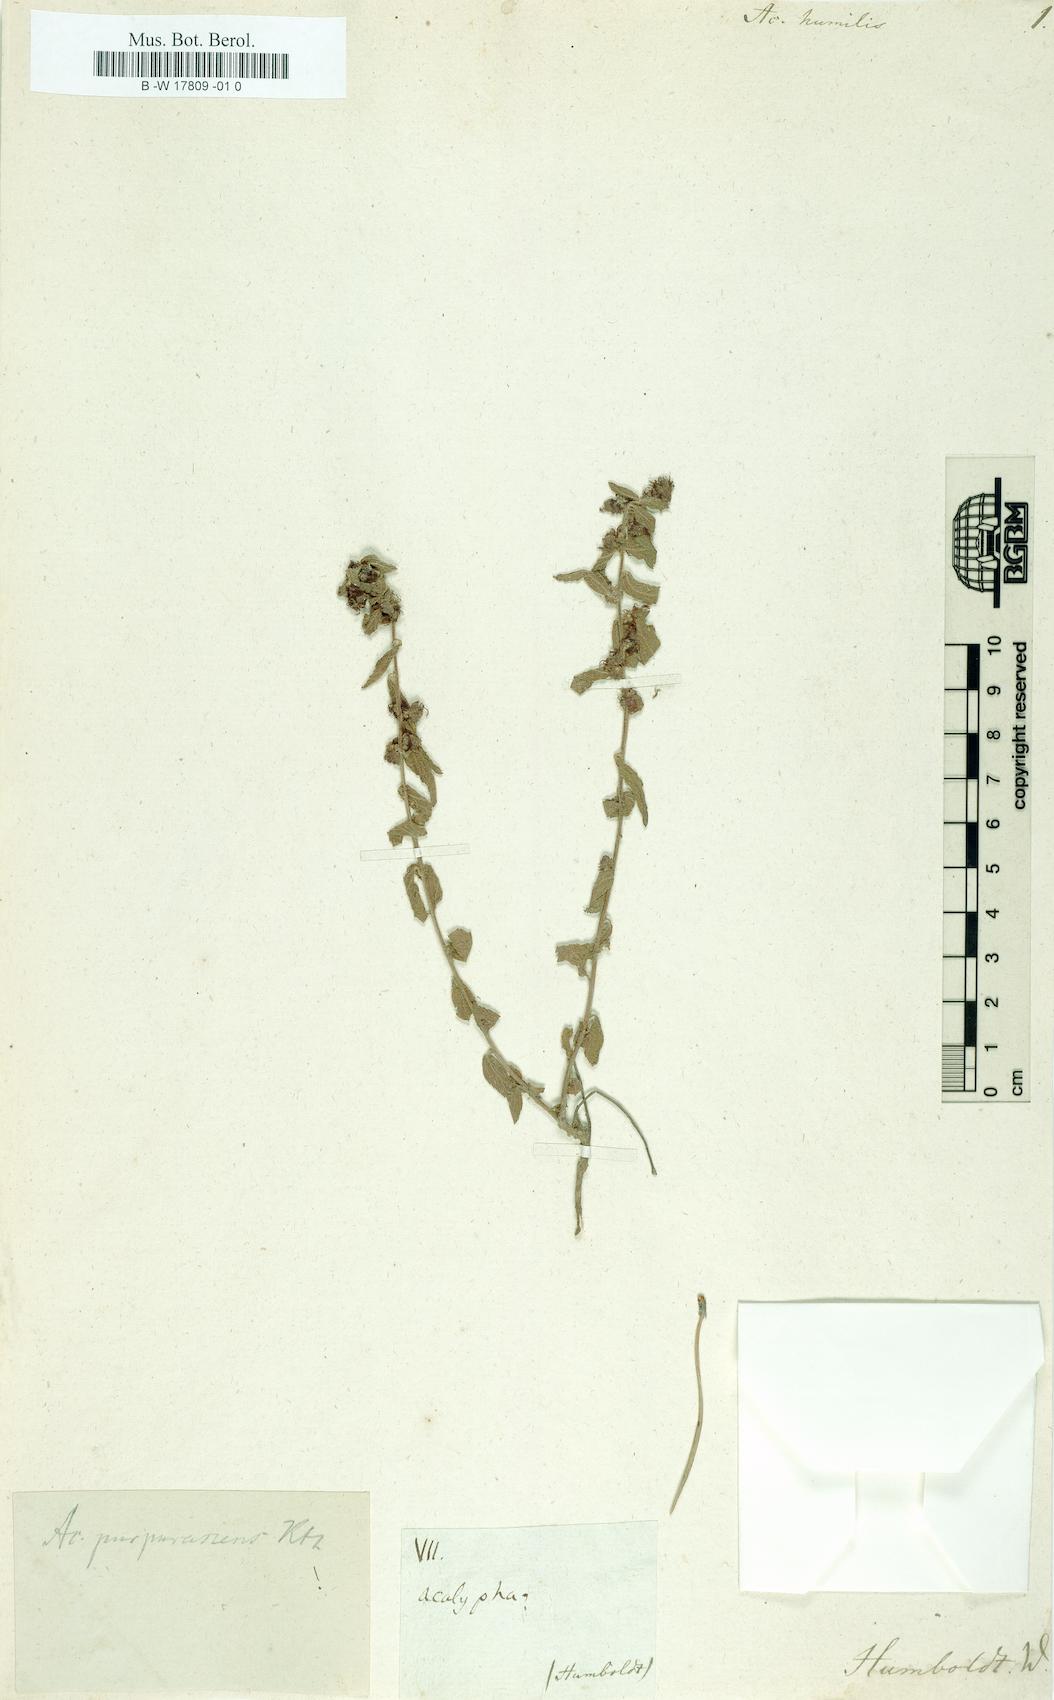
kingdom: Plantae
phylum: Tracheophyta
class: Magnoliopsida
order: Malpighiales
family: Euphorbiaceae
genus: Acalypha
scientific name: Acalypha variabilis
